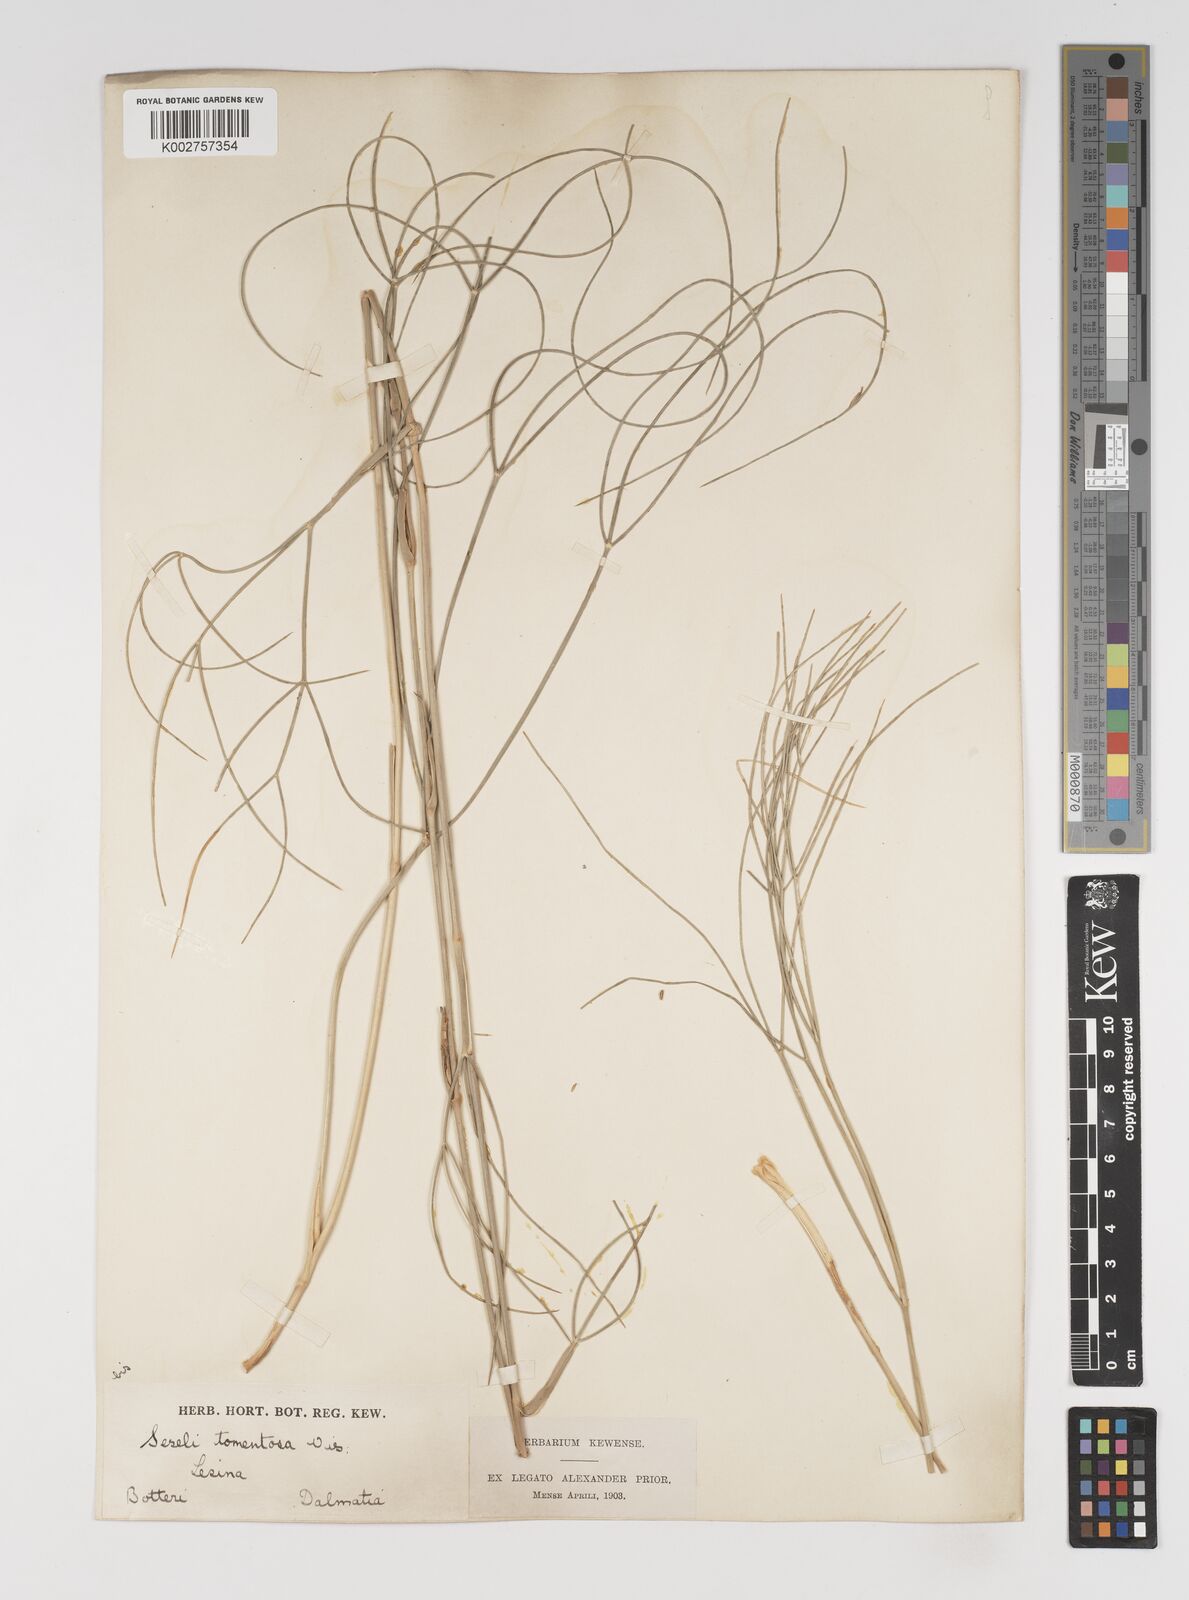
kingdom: Plantae
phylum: Tracheophyta
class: Magnoliopsida
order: Apiales
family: Apiaceae
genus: Cyathoselinum
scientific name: Cyathoselinum tomentosum
